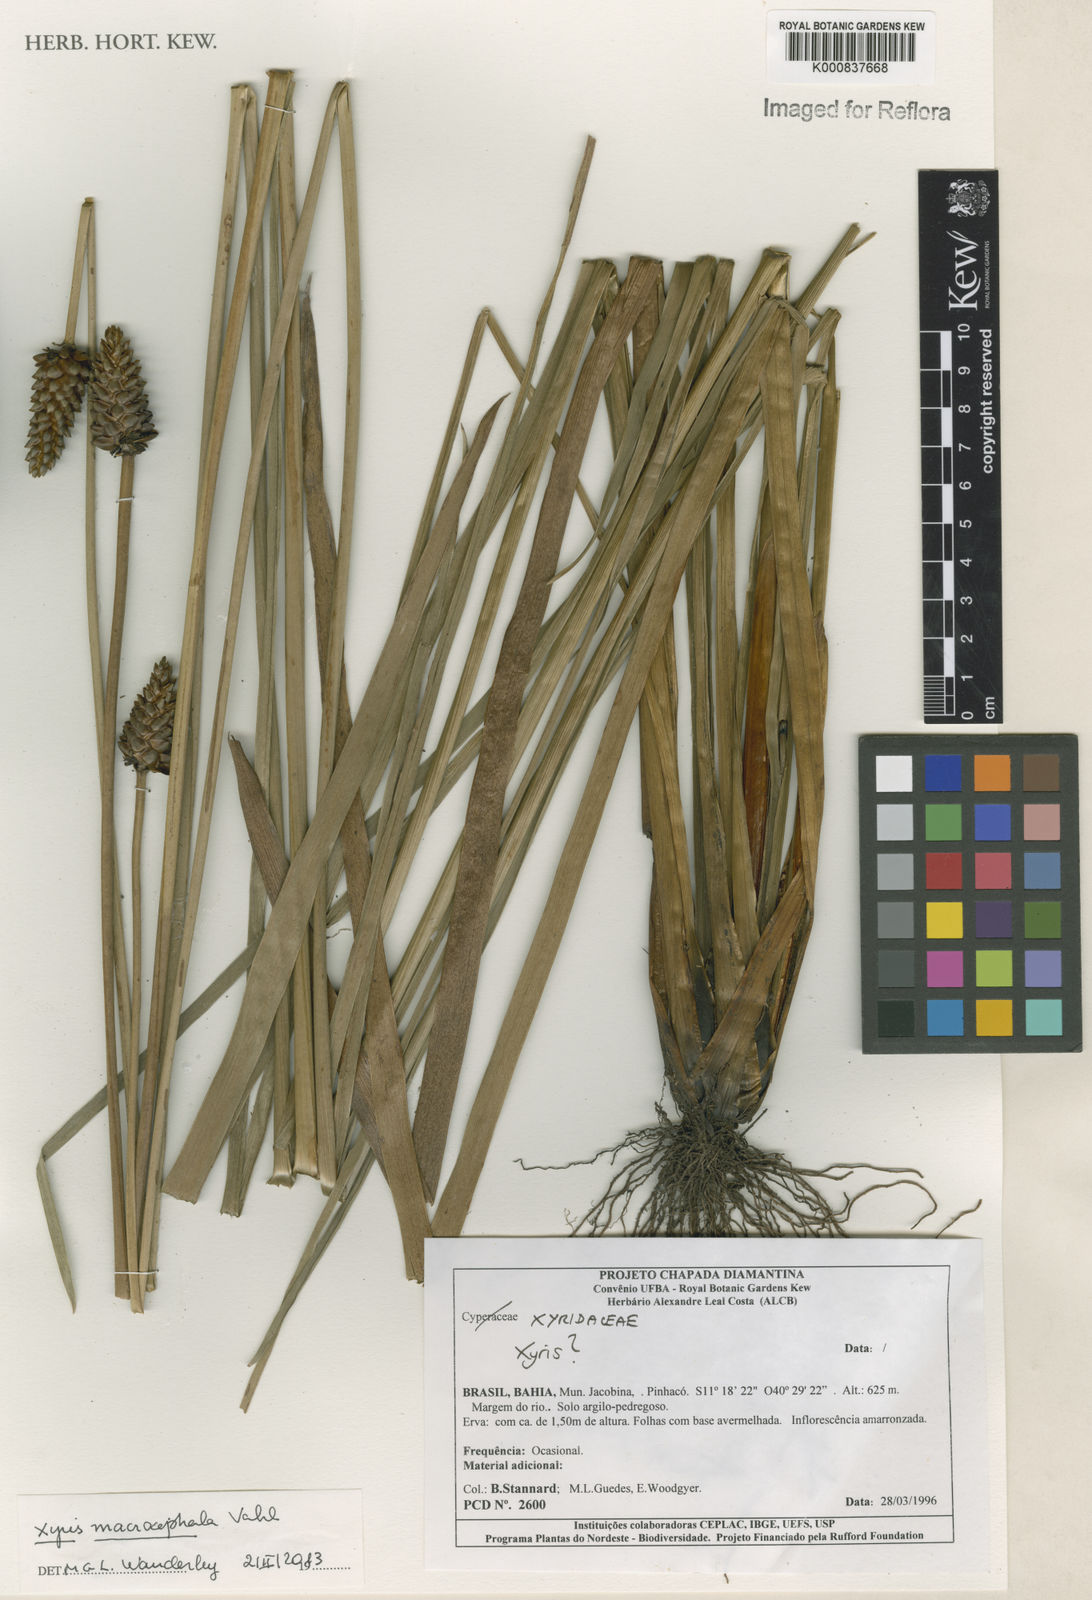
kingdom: Plantae
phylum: Tracheophyta
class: Liliopsida
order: Poales
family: Xyridaceae
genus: Xyris
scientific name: Xyris jupicai
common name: Richard's yelloweyed grass
